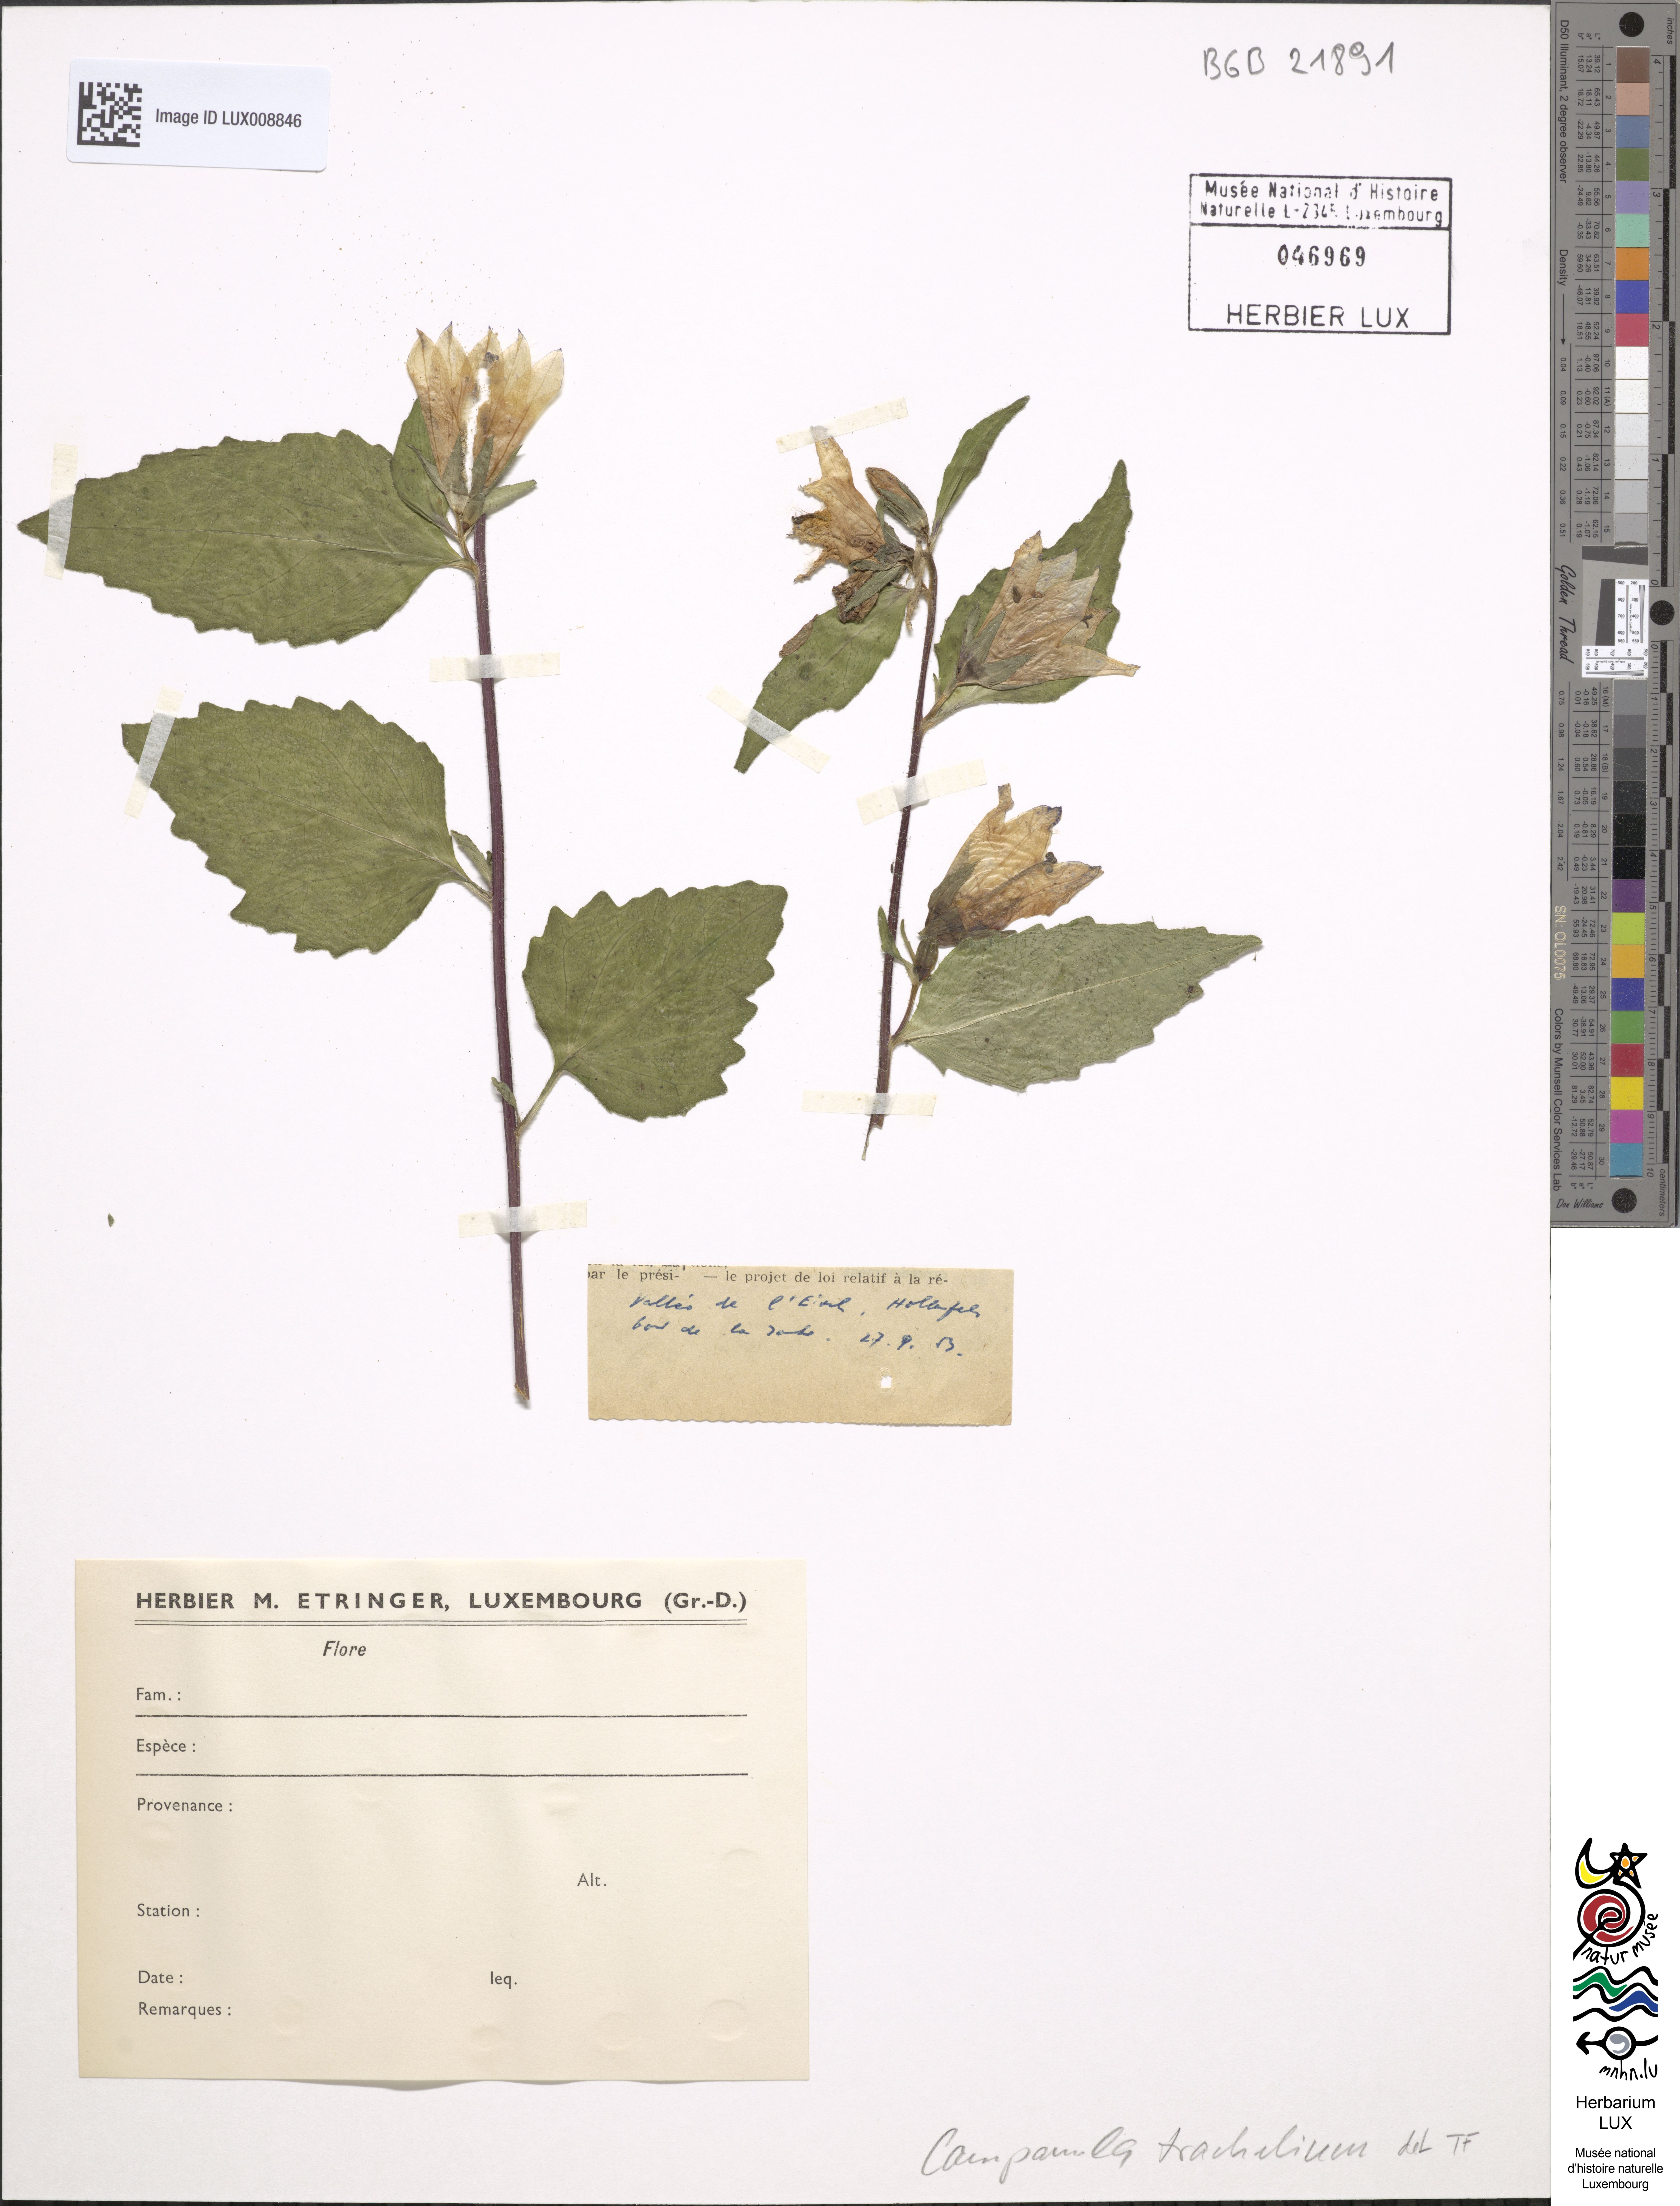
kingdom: Plantae
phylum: Tracheophyta
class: Magnoliopsida
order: Asterales
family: Campanulaceae
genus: Campanula
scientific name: Campanula trachelium
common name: Nettle-leaved bellflower
